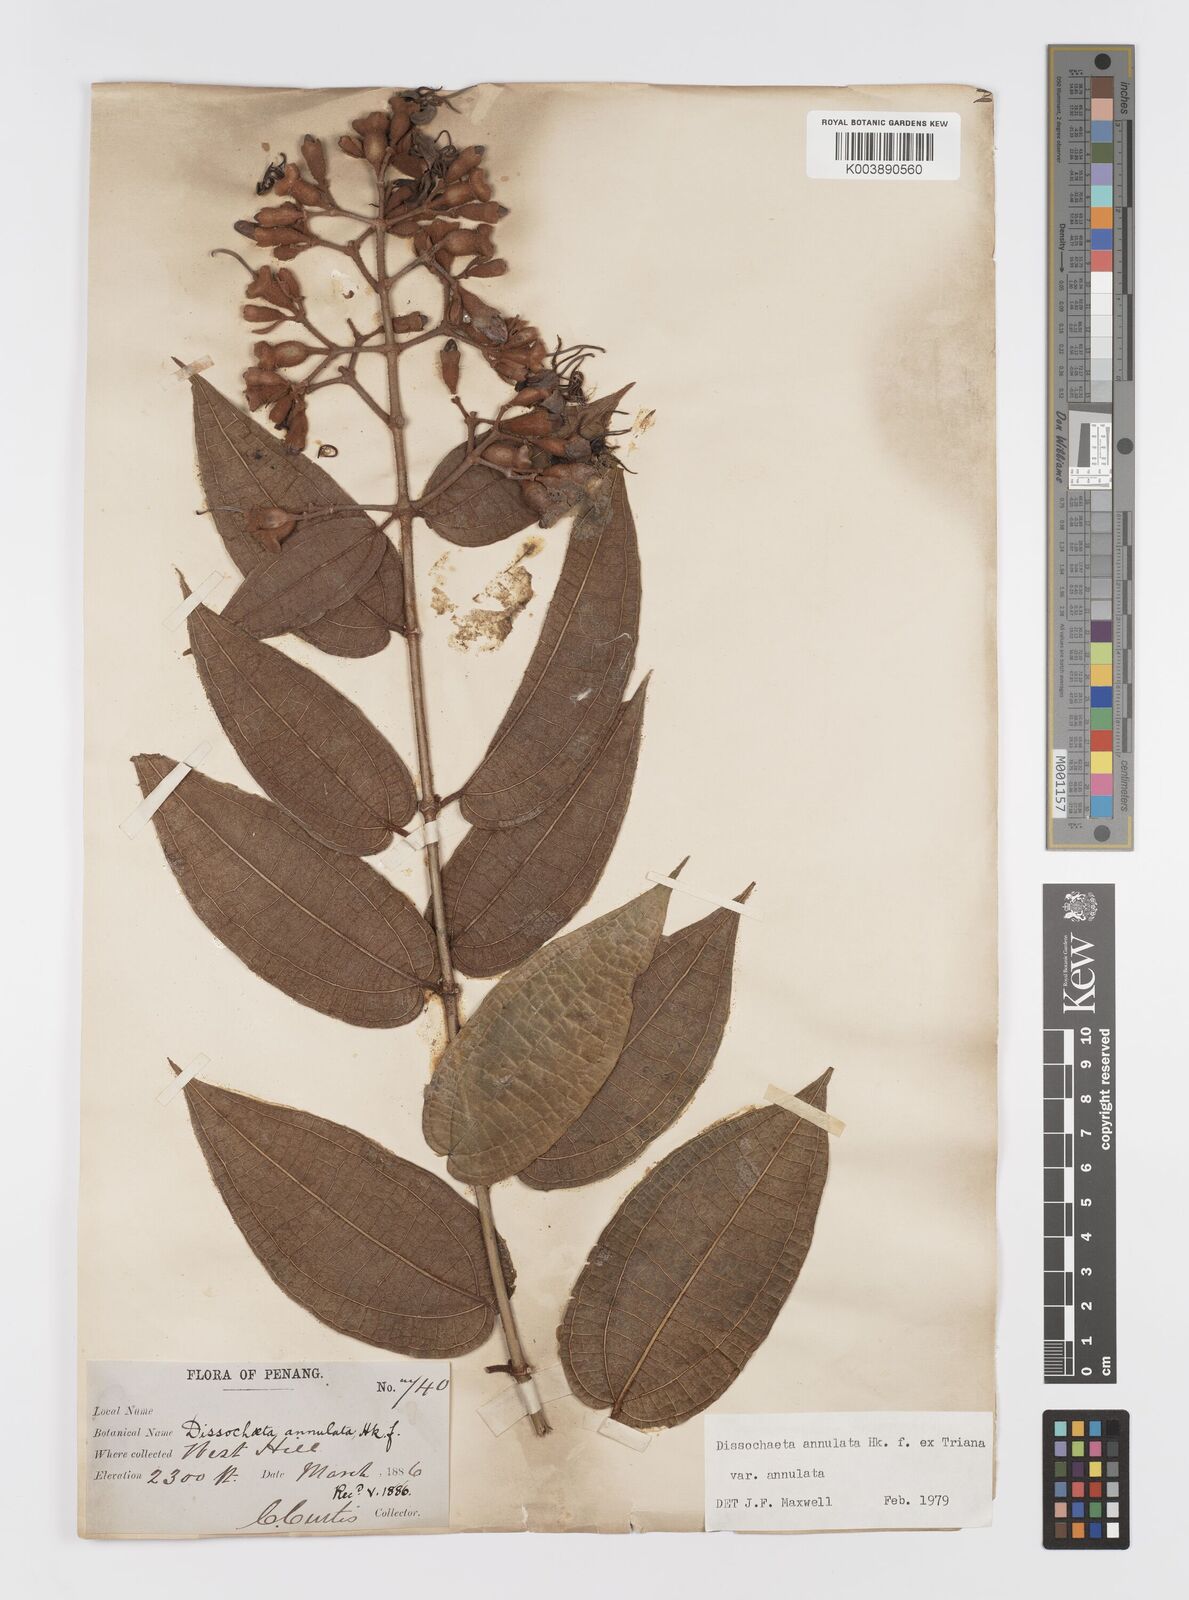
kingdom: Plantae
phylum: Tracheophyta
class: Magnoliopsida
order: Myrtales
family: Melastomataceae
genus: Dissochaeta
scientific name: Dissochaeta annulata
